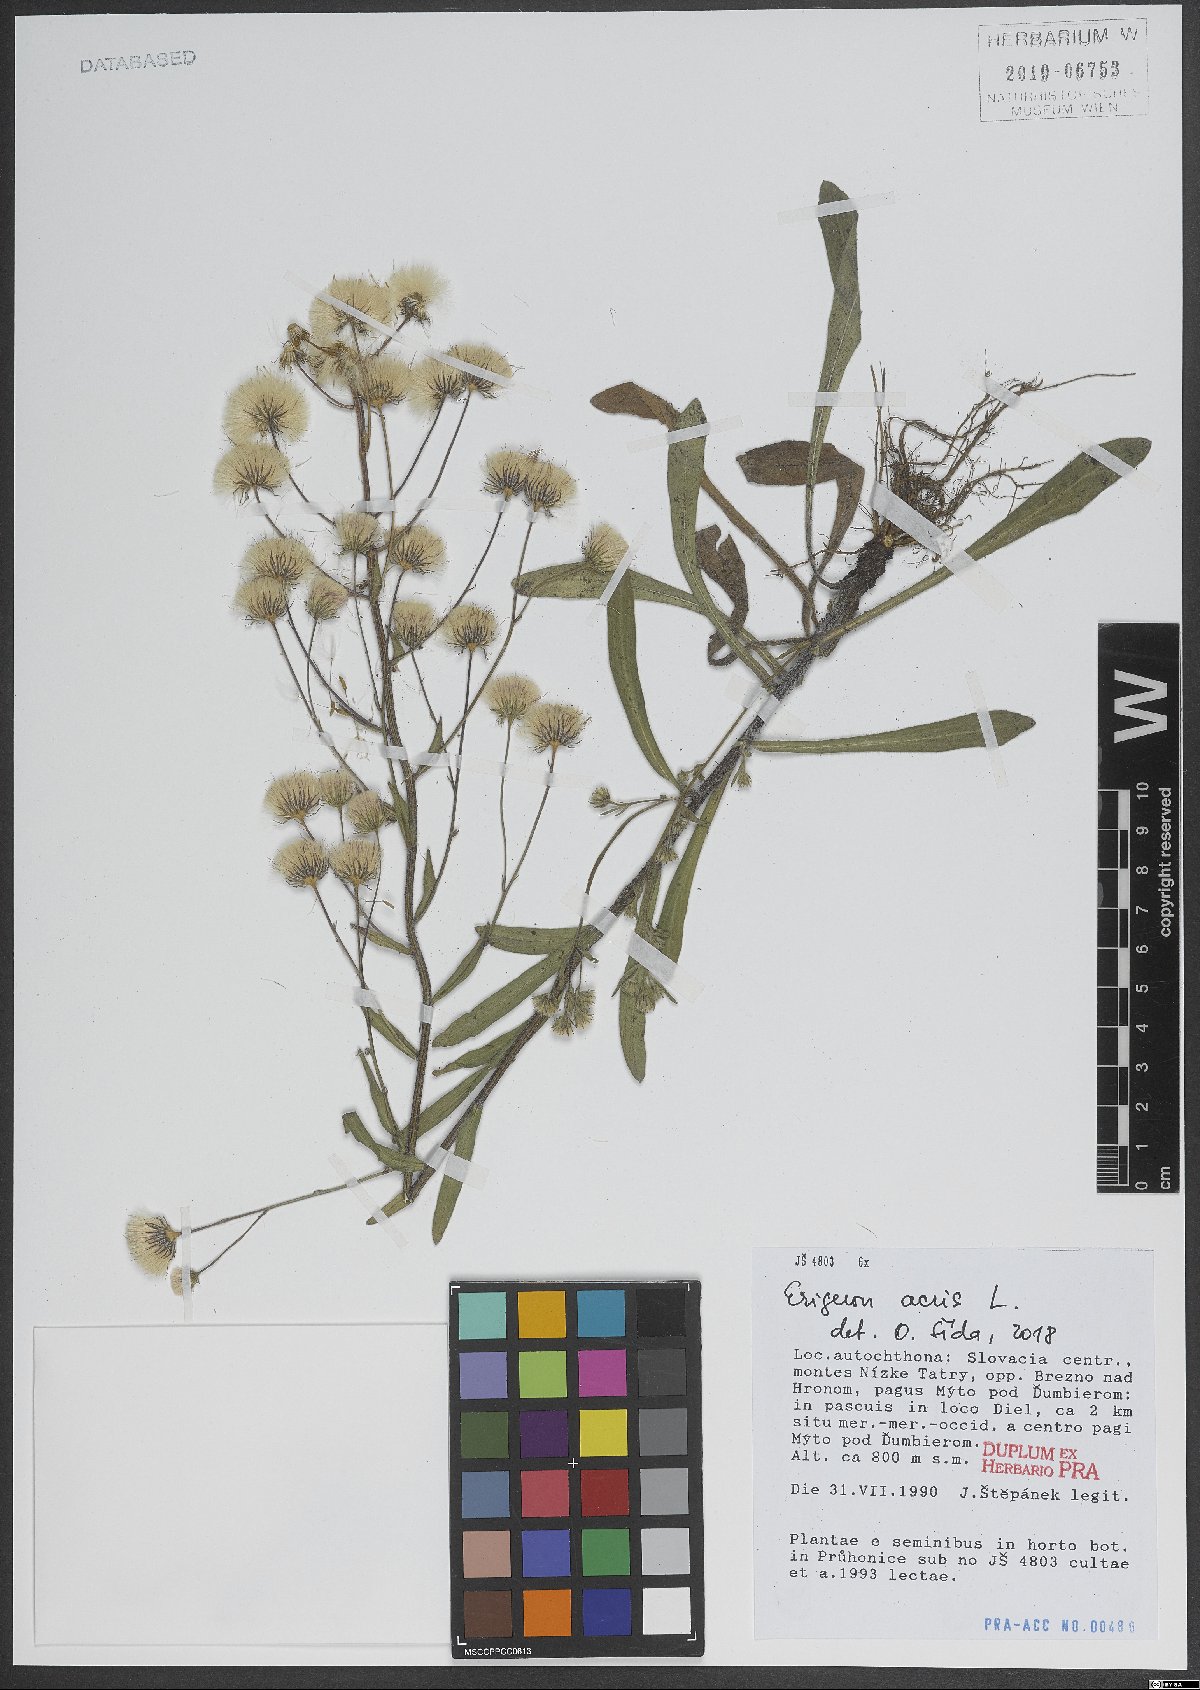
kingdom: Plantae
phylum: Tracheophyta
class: Magnoliopsida
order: Asterales
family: Asteraceae
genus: Erigeron
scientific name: Erigeron acris
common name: Blue fleabane
